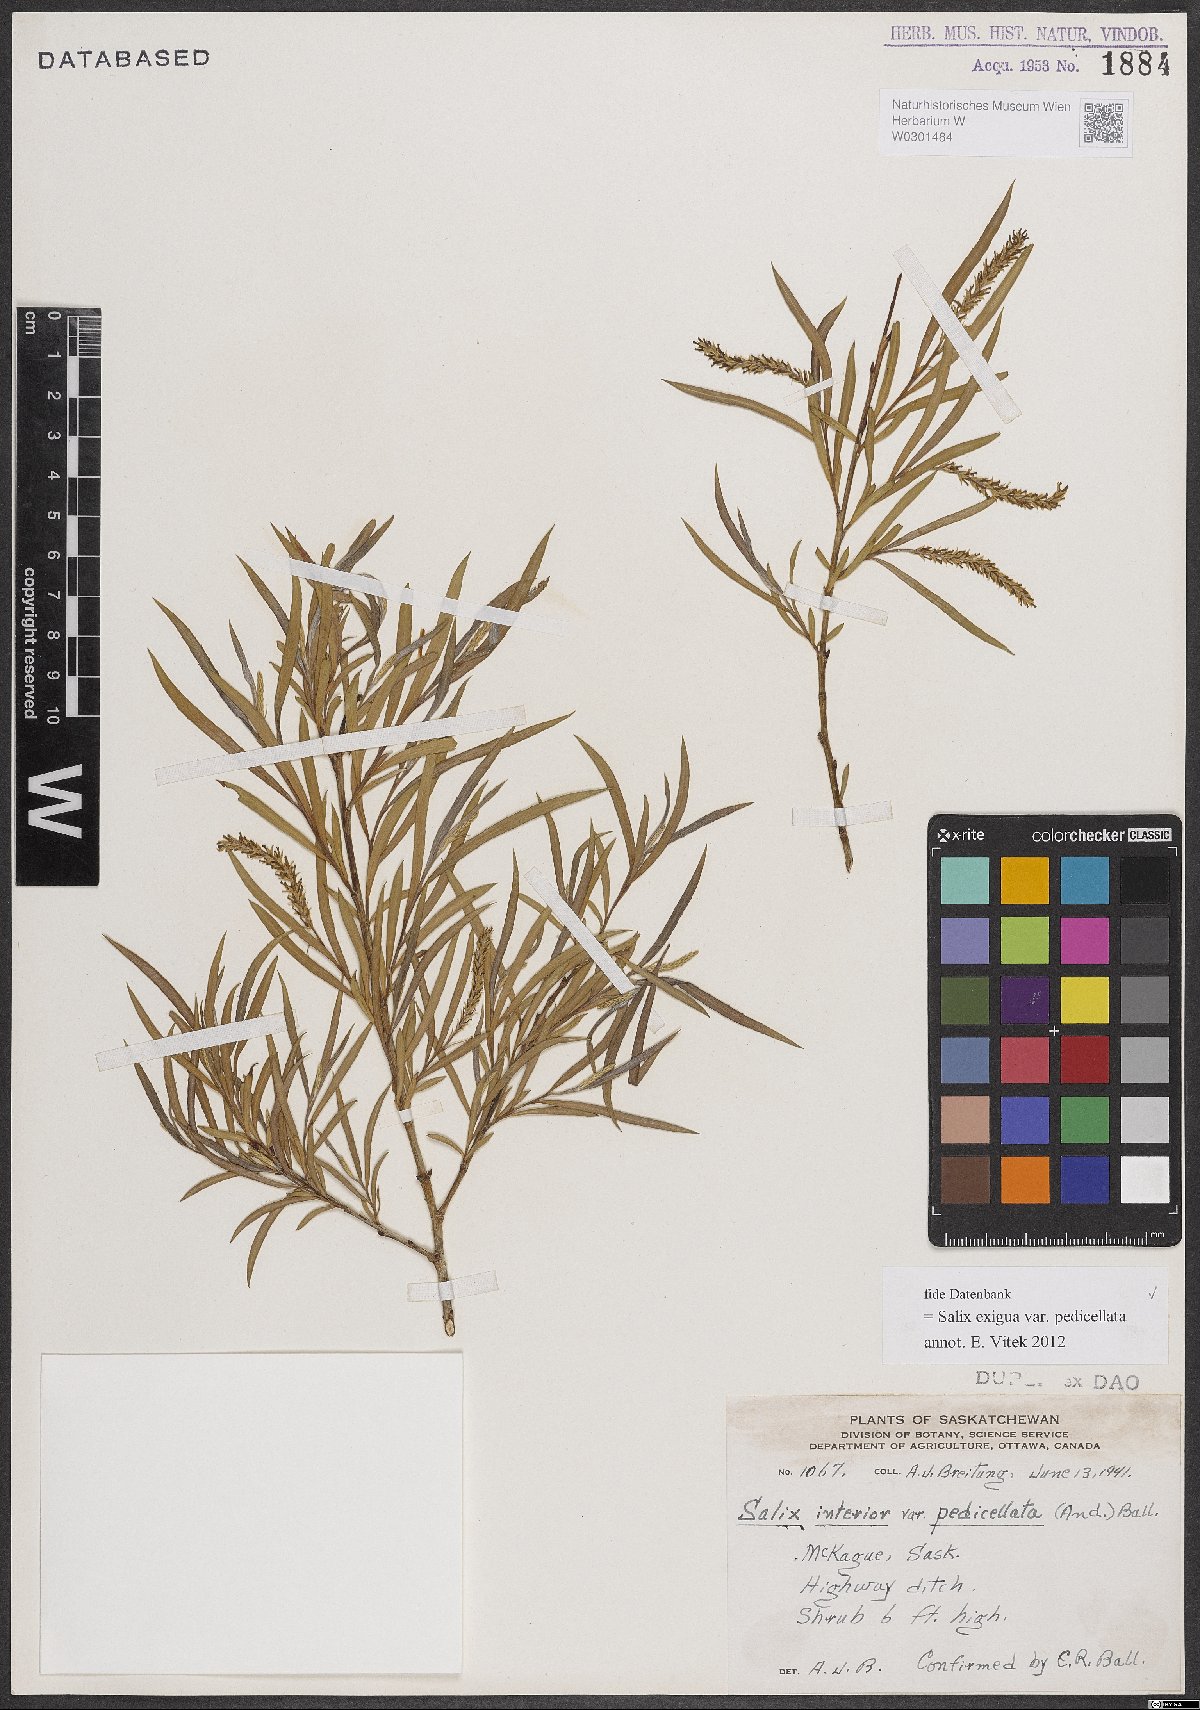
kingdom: Plantae
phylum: Tracheophyta
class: Magnoliopsida
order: Malpighiales
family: Salicaceae
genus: Salix
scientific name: Salix interior
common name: Sandbar willow
